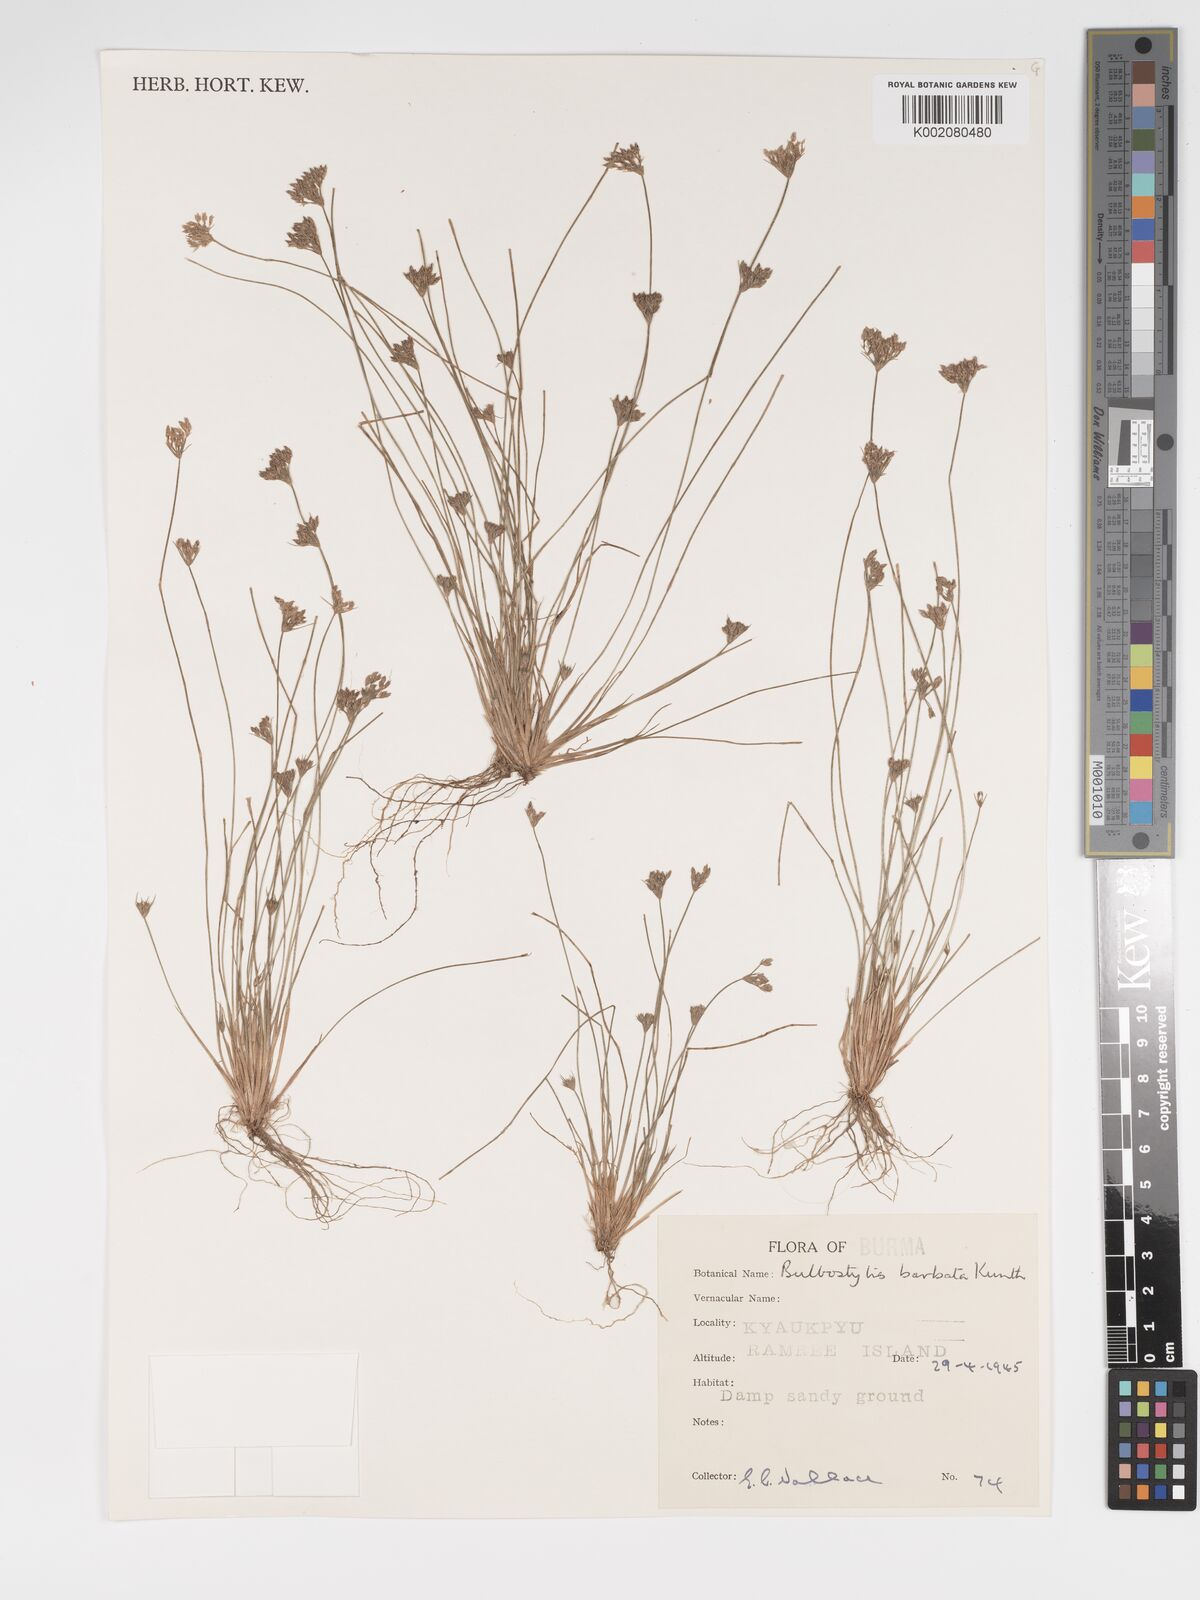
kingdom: Plantae
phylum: Tracheophyta
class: Liliopsida
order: Poales
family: Cyperaceae
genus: Bulbostylis
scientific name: Bulbostylis barbata
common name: Watergrass
